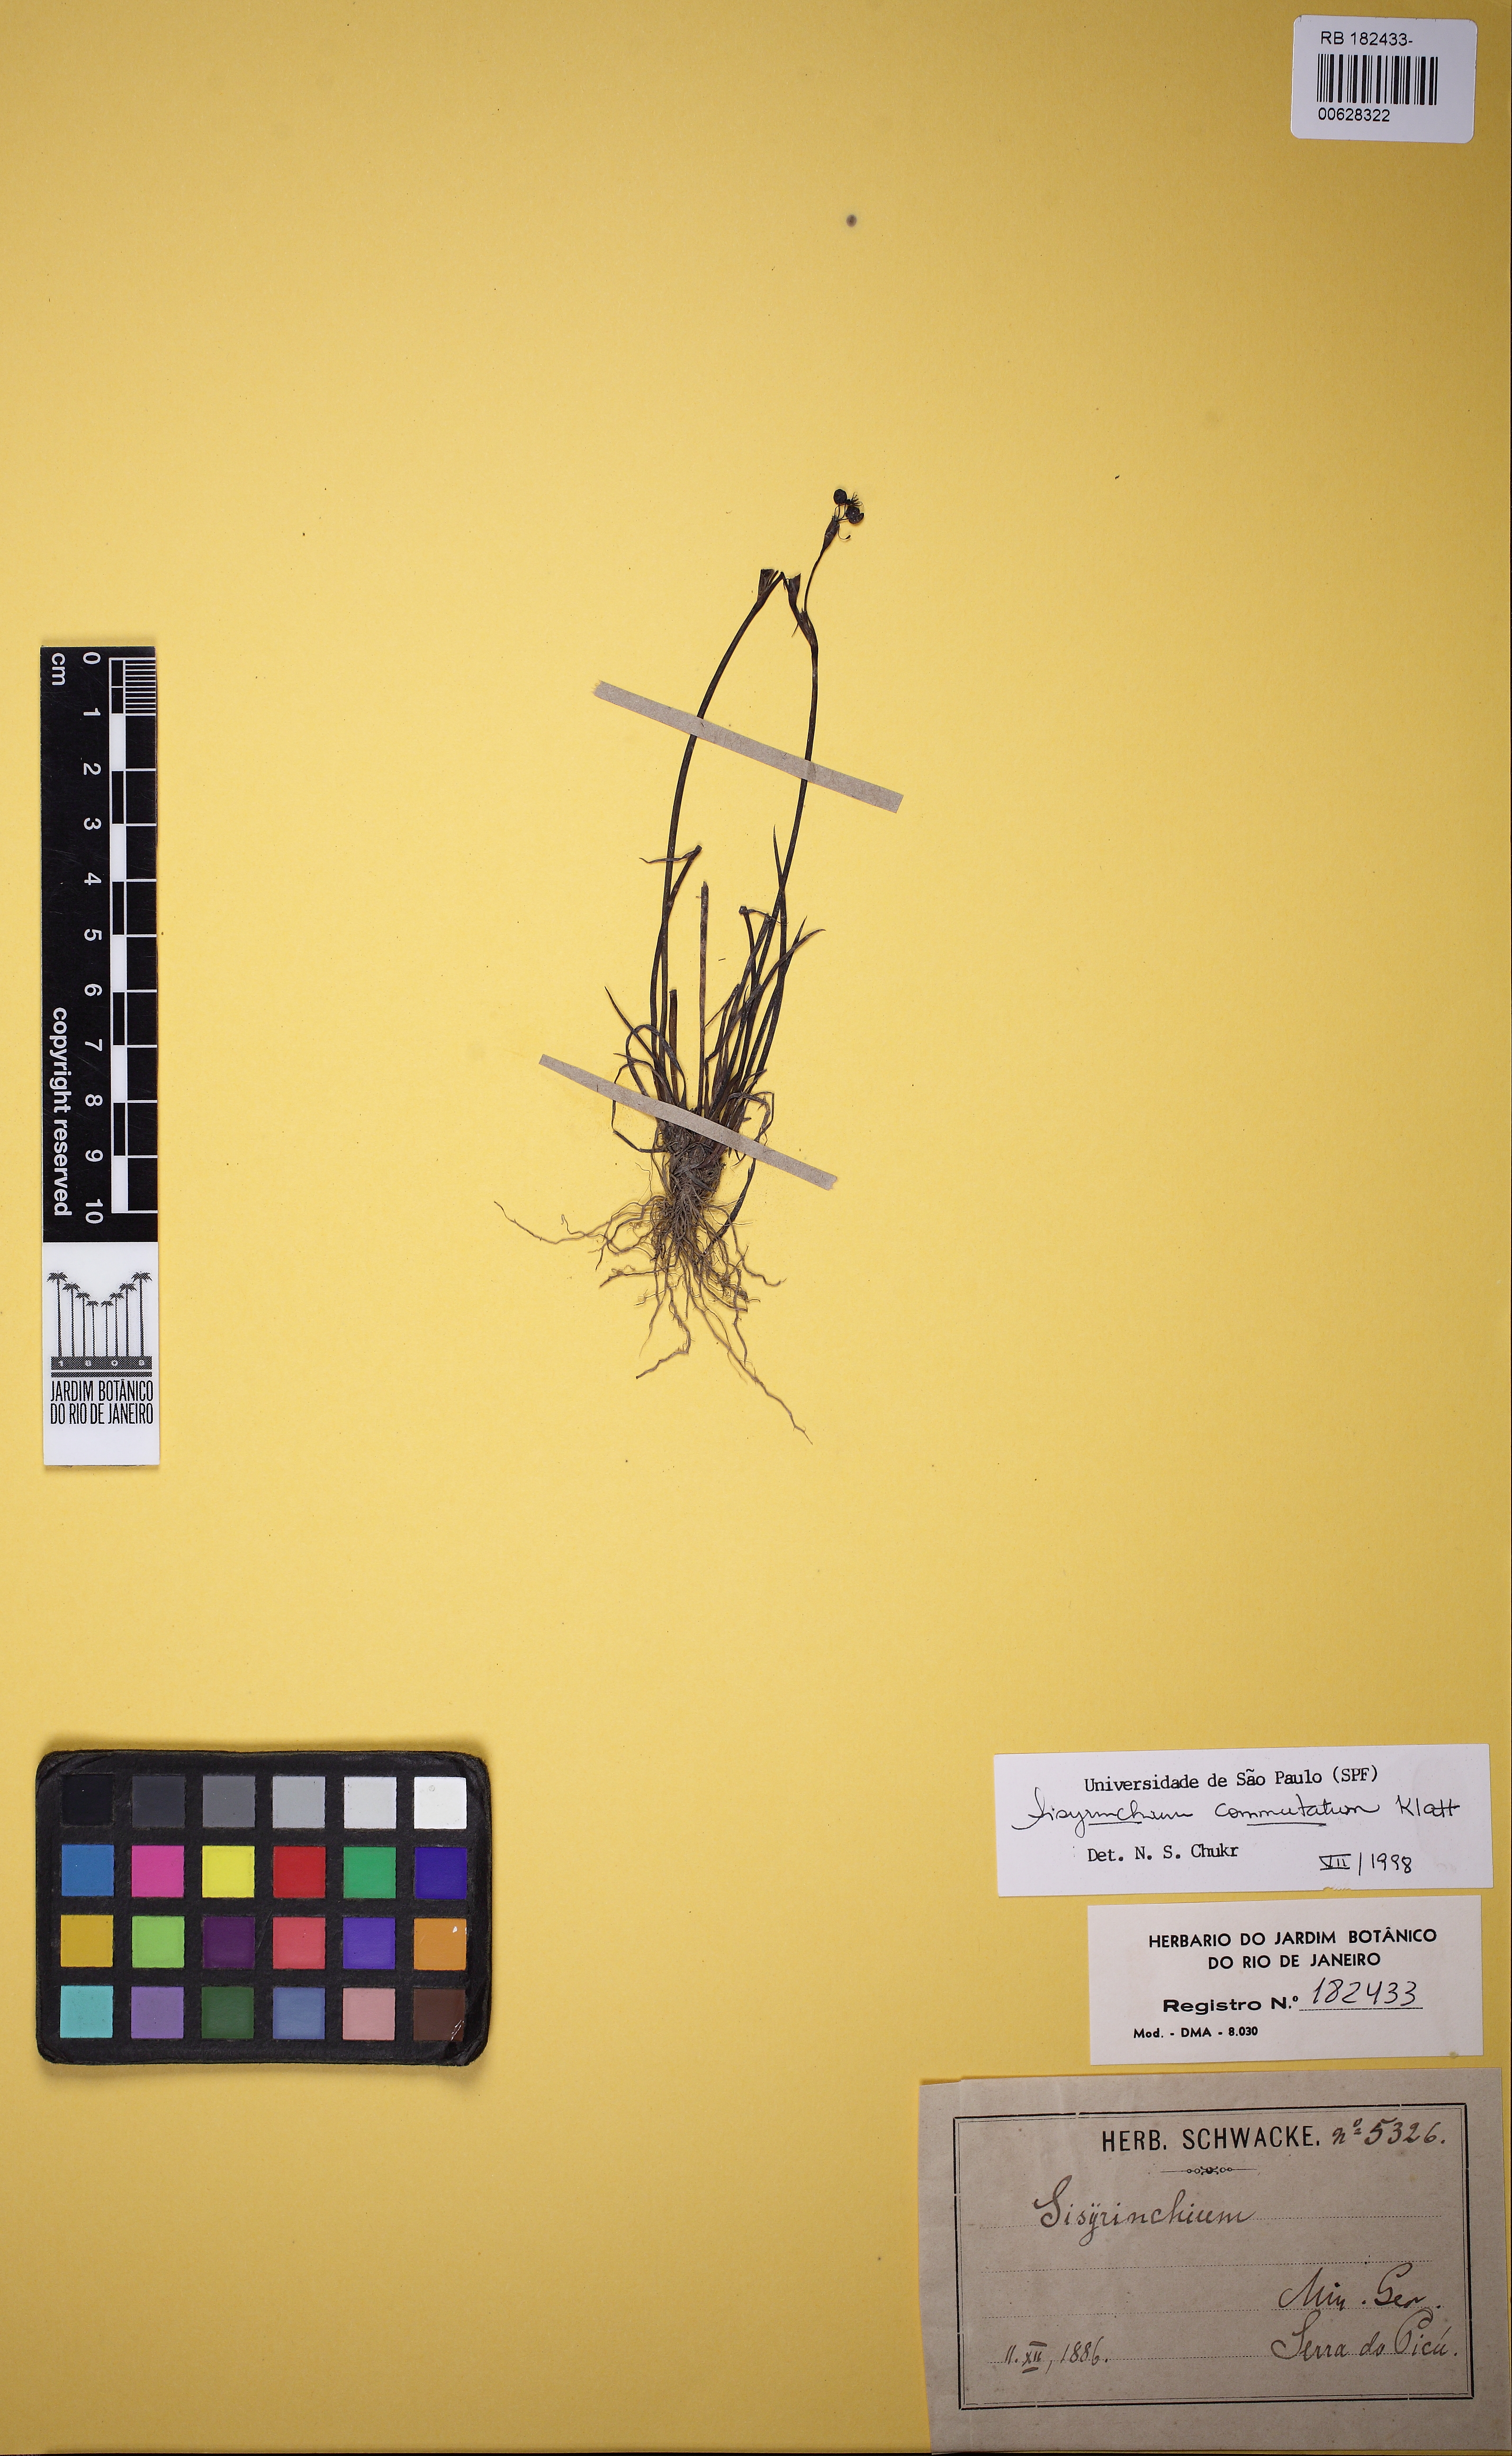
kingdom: Plantae
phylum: Tracheophyta
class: Liliopsida
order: Asparagales
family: Iridaceae
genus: Sisyrinchium
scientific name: Sisyrinchium commutatum
